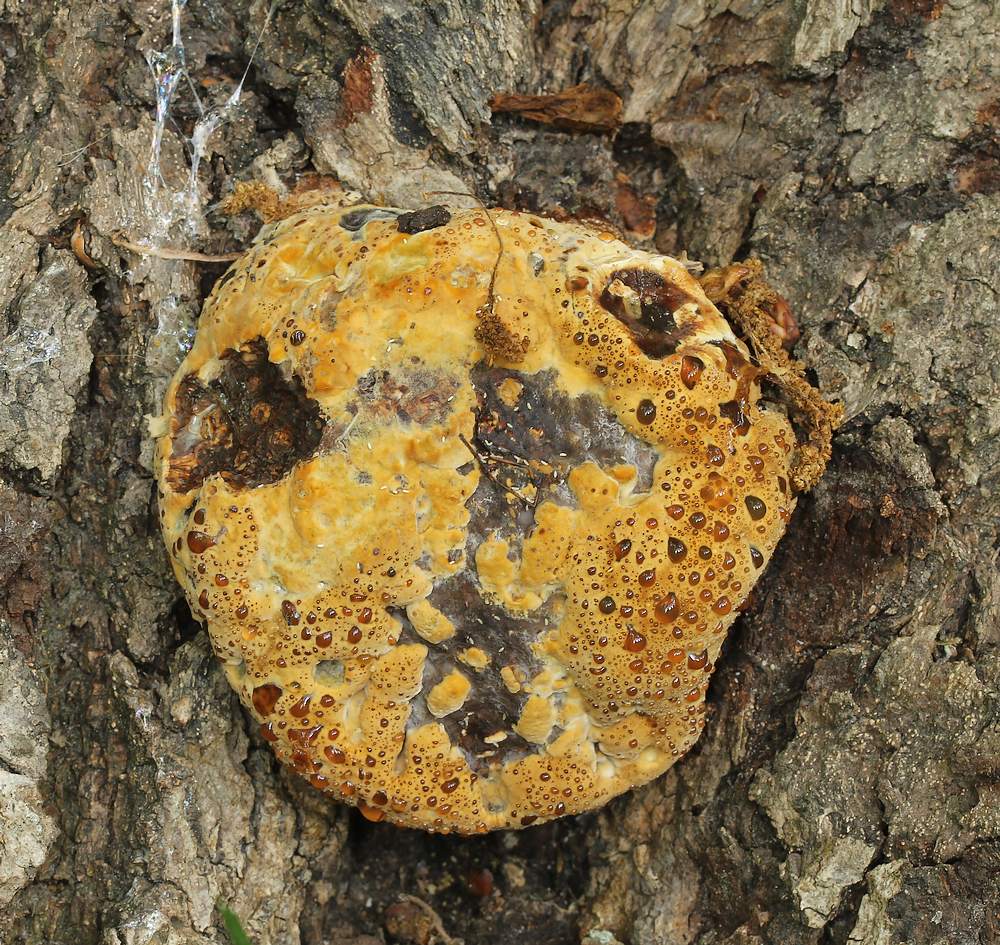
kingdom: Fungi
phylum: Basidiomycota
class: Agaricomycetes
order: Hymenochaetales
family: Hymenochaetaceae
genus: Pseudoinonotus
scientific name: Pseudoinonotus dryadeus
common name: ege-spejlporesvamp
